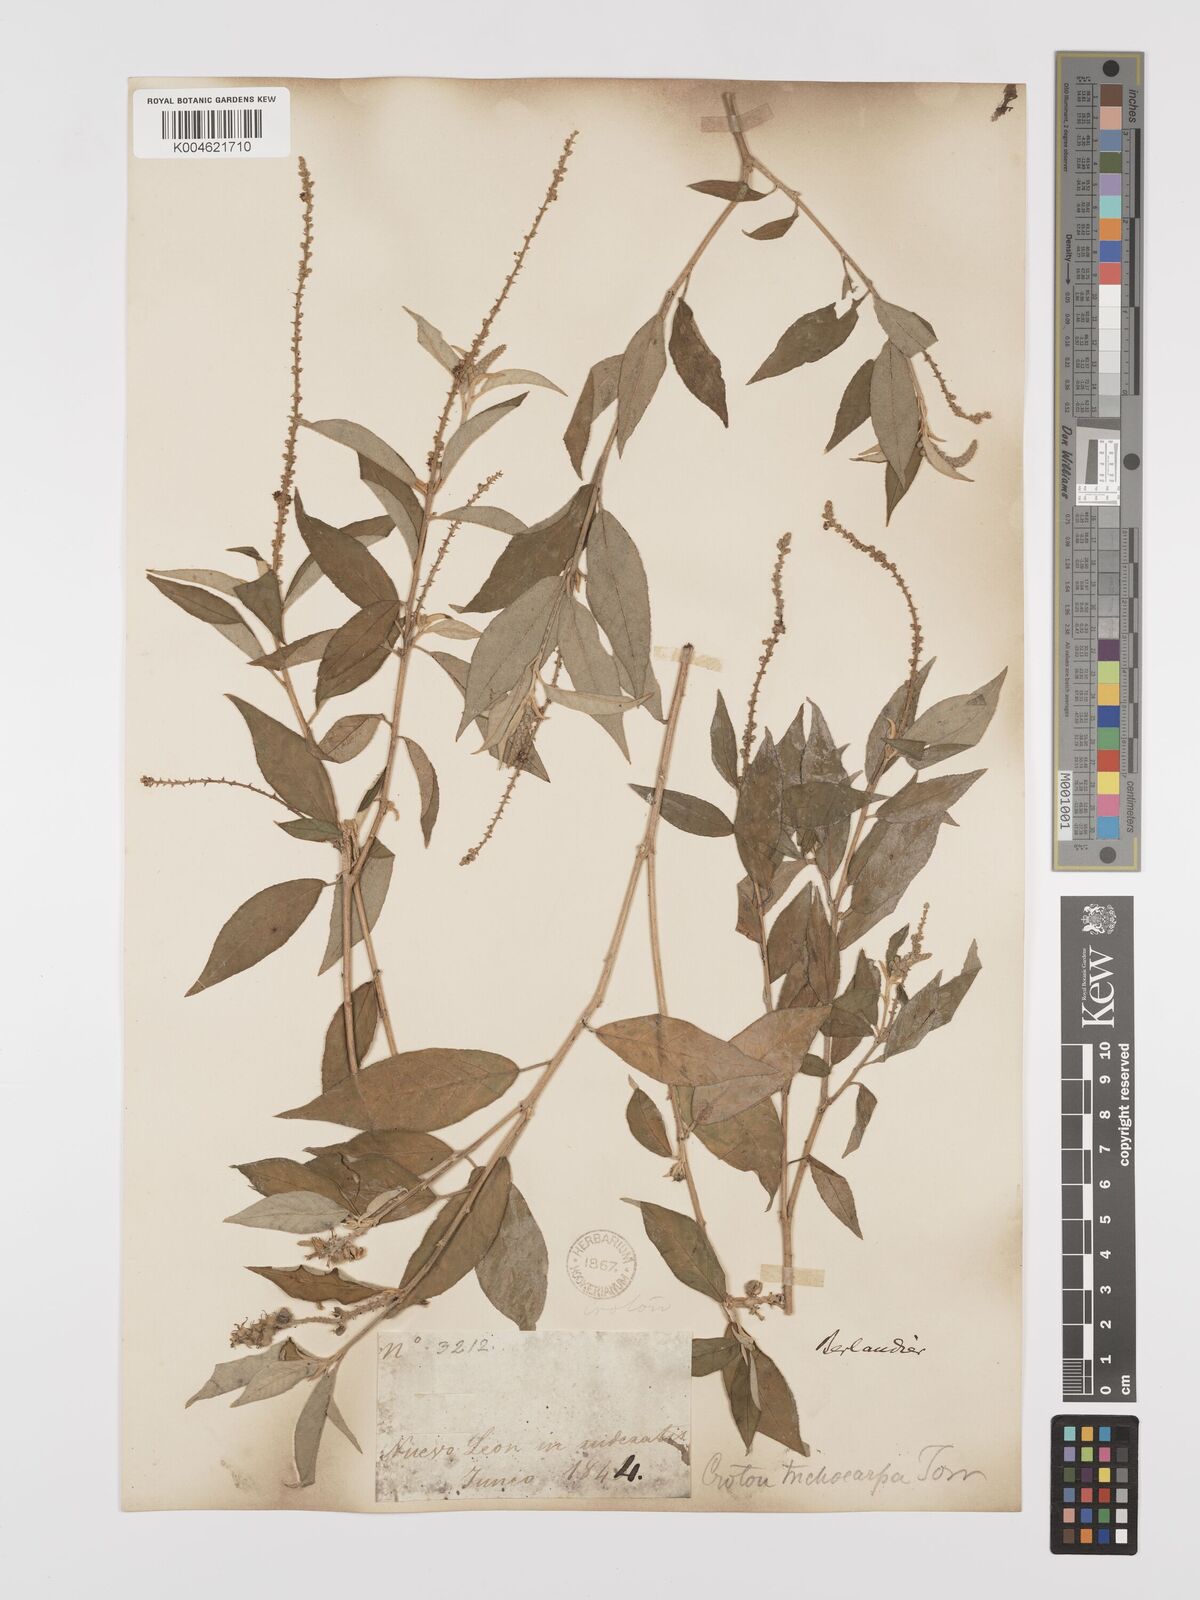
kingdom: Plantae
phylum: Tracheophyta
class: Magnoliopsida
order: Malpighiales
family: Euphorbiaceae
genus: Croton
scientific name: Croton cortesianus
